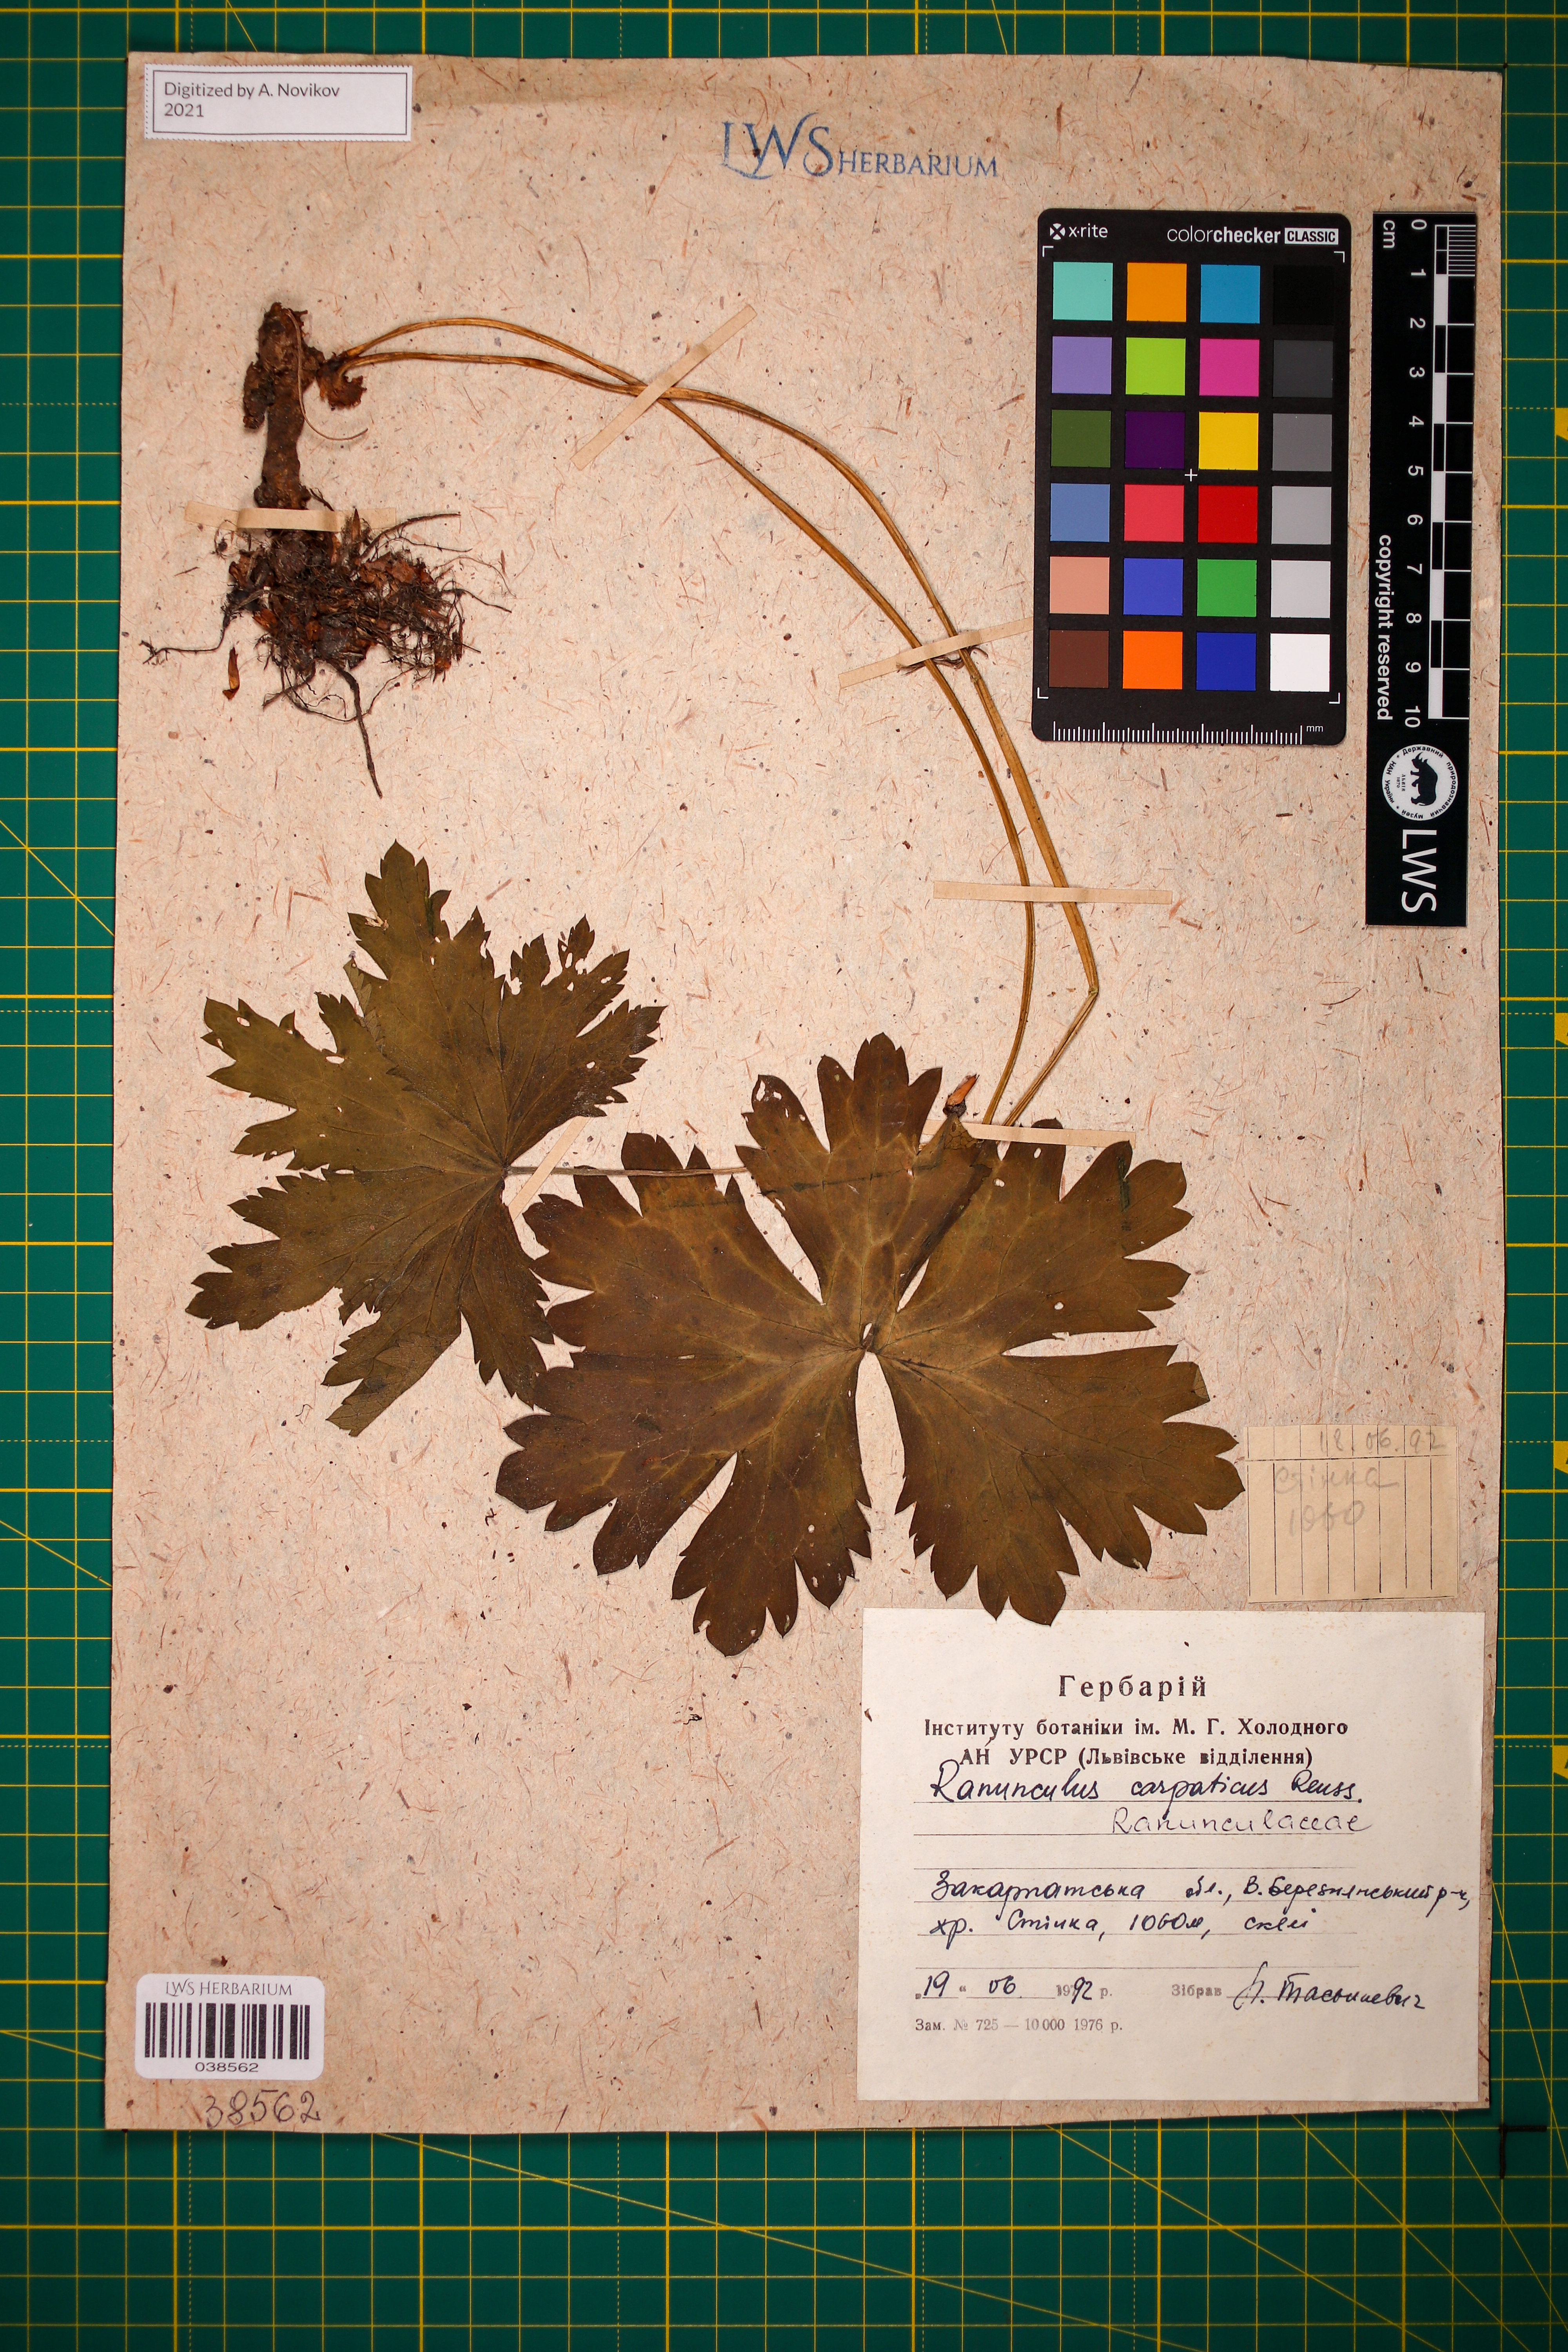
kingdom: Plantae
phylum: Tracheophyta
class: Magnoliopsida
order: Ranunculales
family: Ranunculaceae
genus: Ranunculus
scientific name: Ranunculus carpaticus
